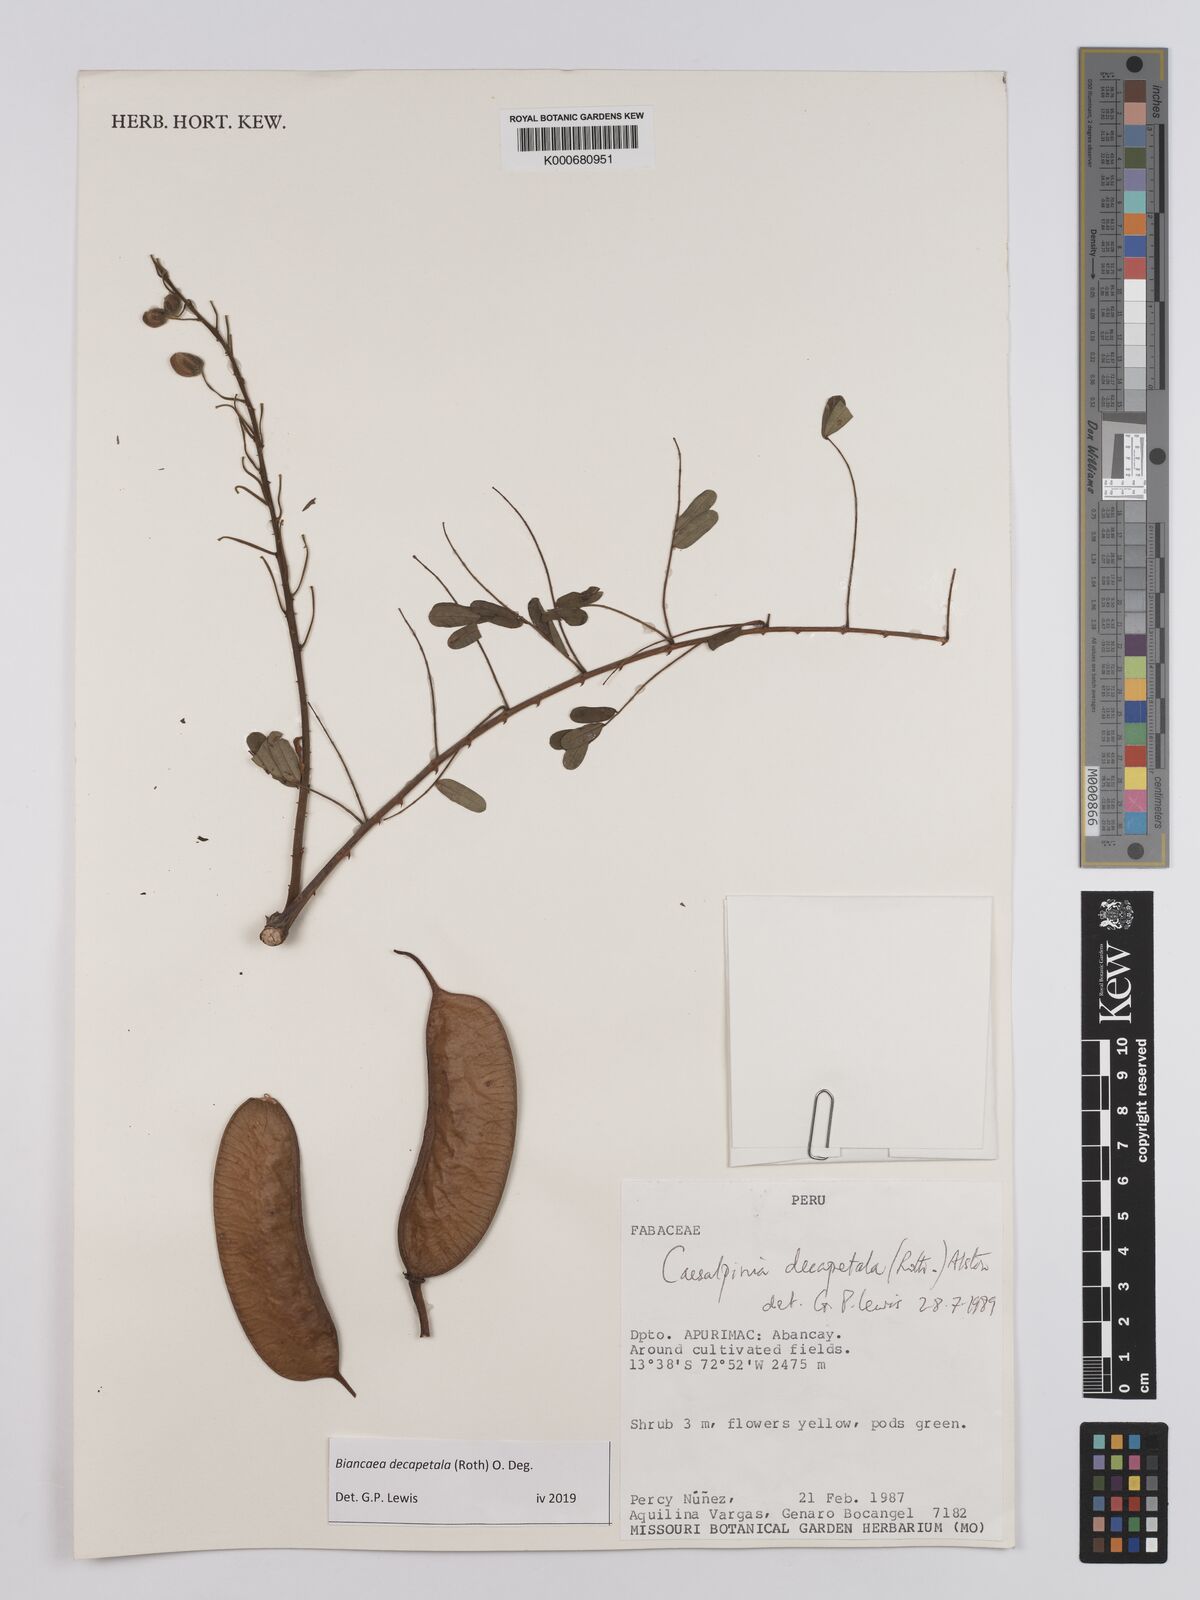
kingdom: Plantae
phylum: Tracheophyta
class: Magnoliopsida
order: Fabales
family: Fabaceae
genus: Biancaea
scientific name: Biancaea decapetala
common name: Cat's claw
